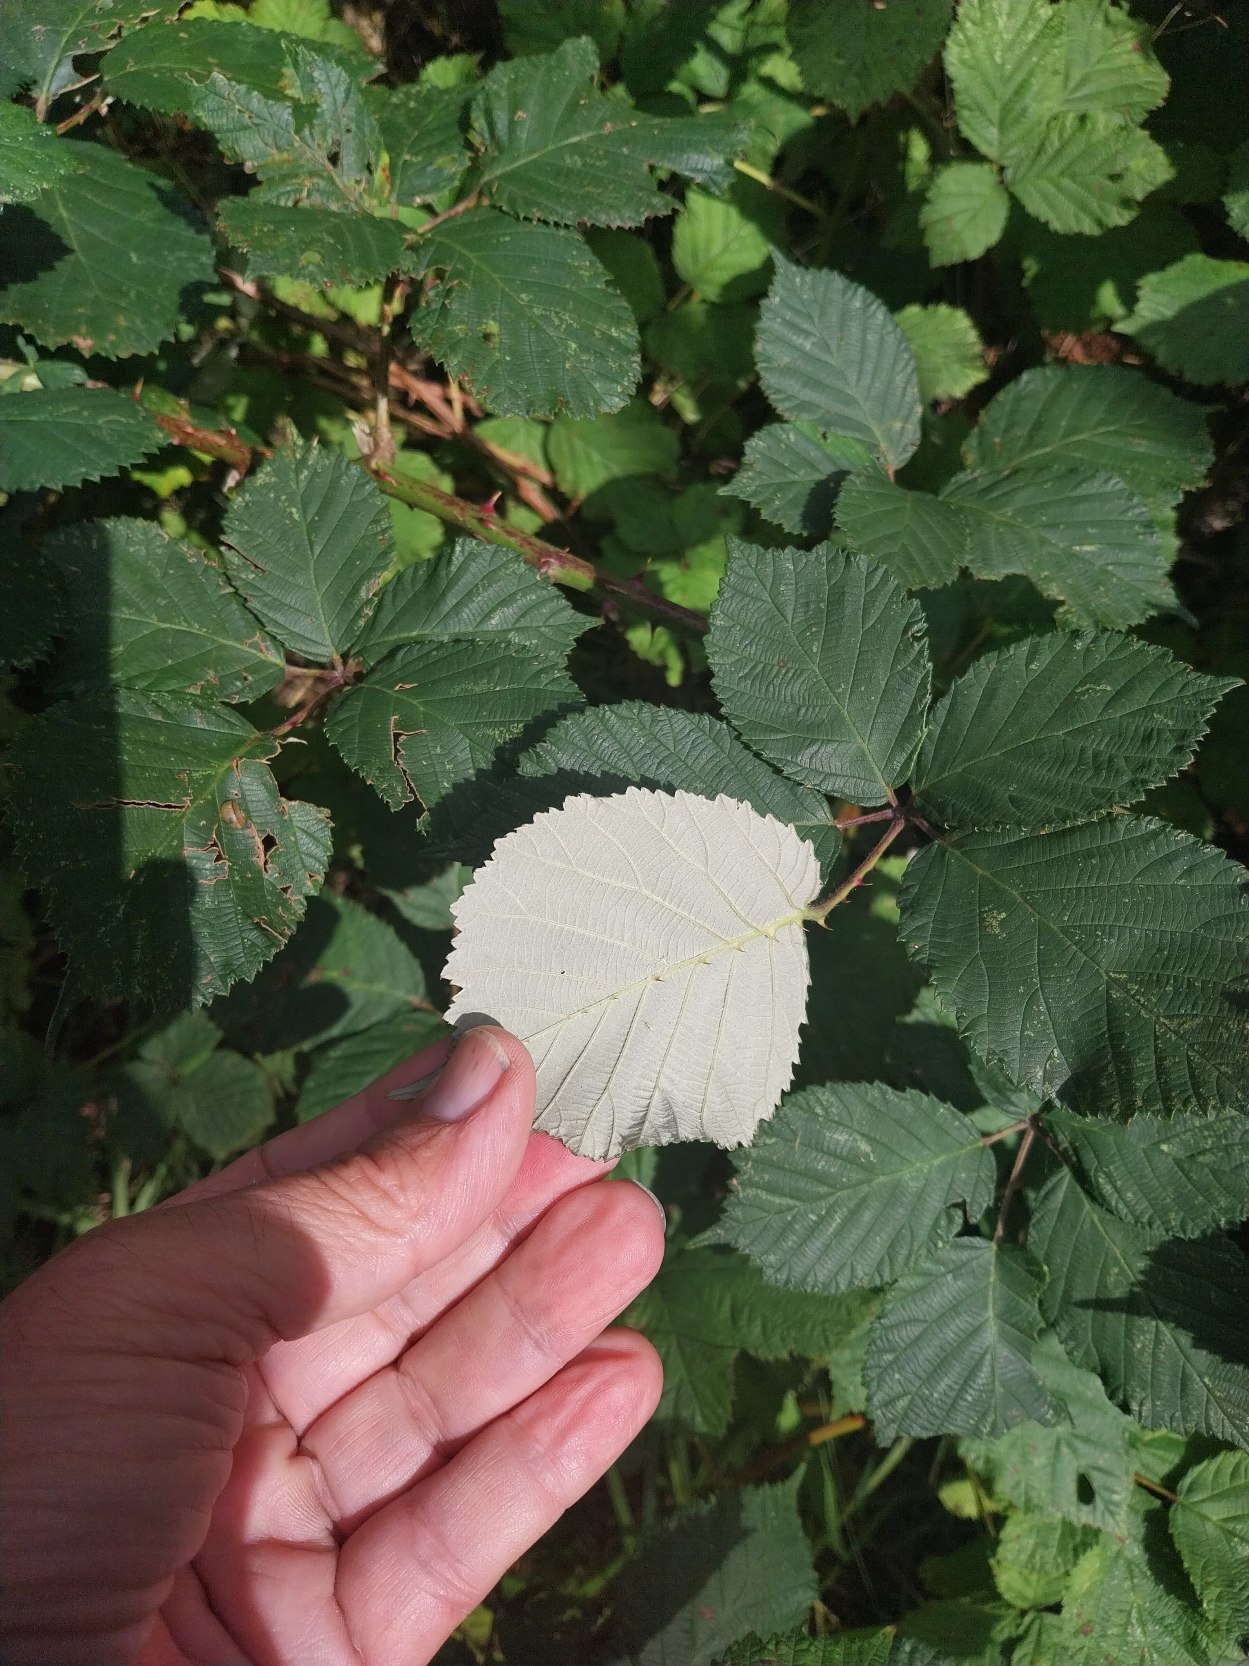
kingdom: Plantae
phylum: Tracheophyta
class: Magnoliopsida
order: Rosales
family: Rosaceae
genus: Rubus
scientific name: Rubus armeniacus
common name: Armensk brombær
